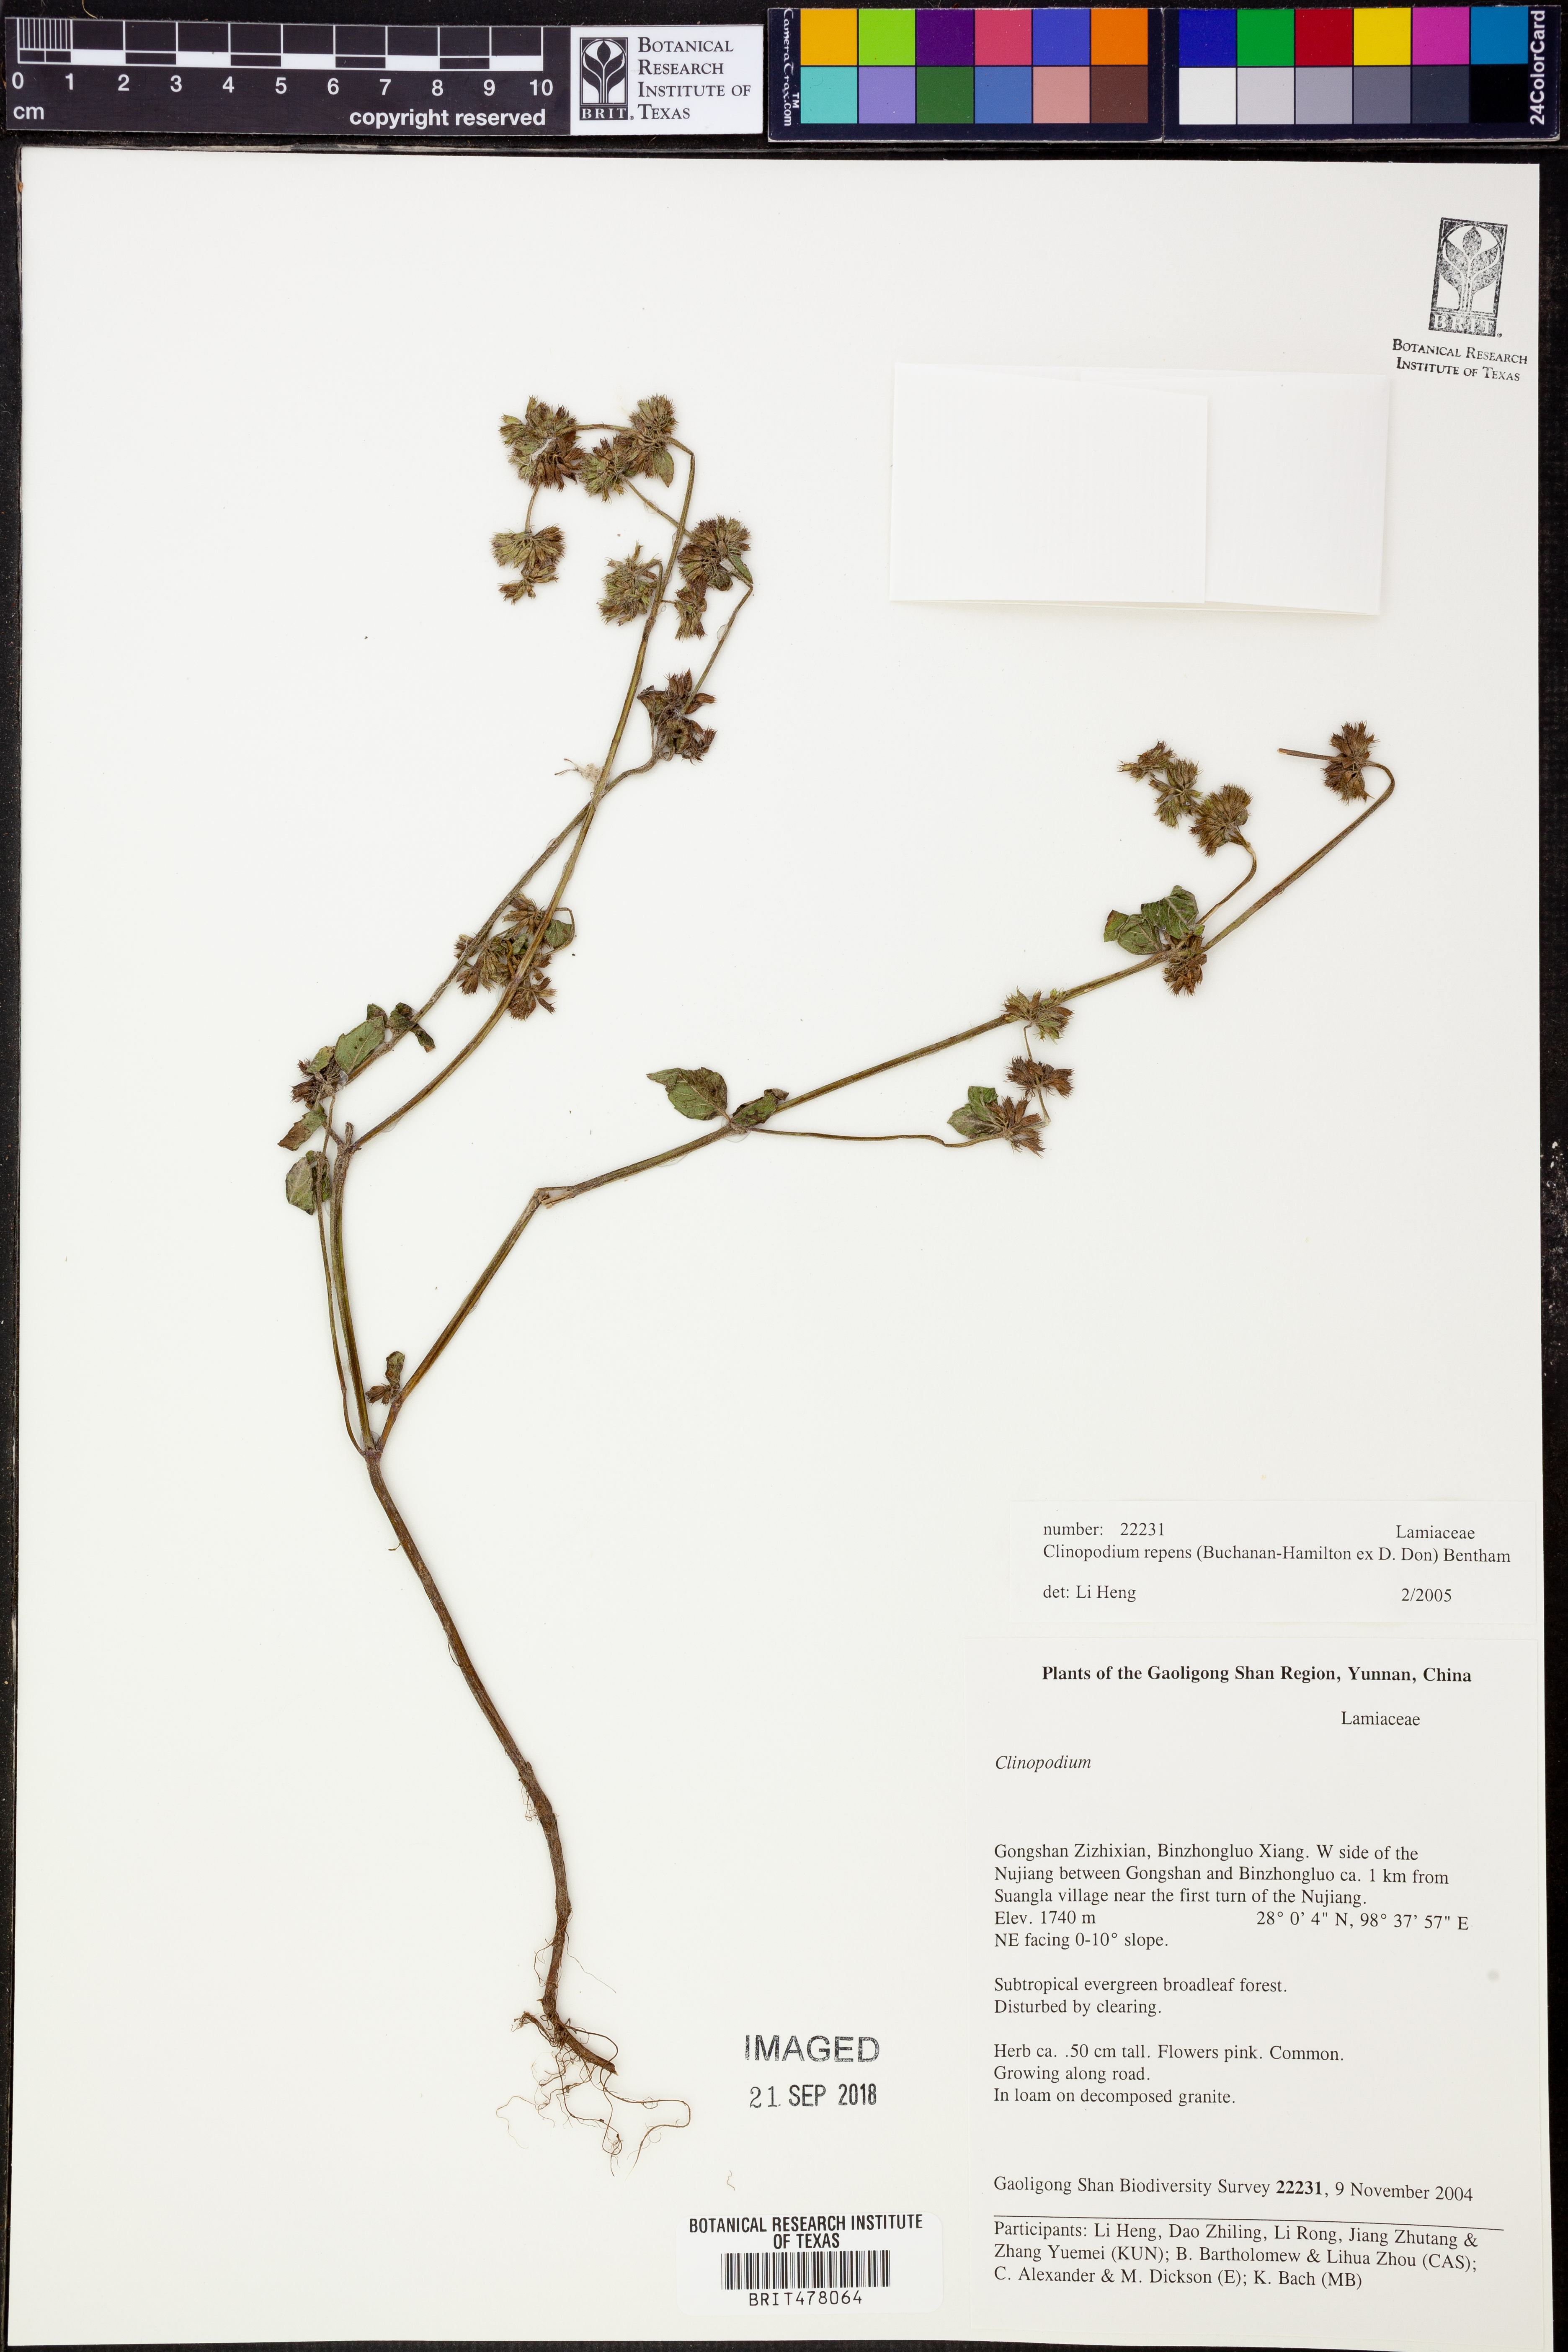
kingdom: Plantae
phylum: Tracheophyta
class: Magnoliopsida
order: Lamiales
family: Lamiaceae
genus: Hyptis
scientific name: Hyptis radicans
